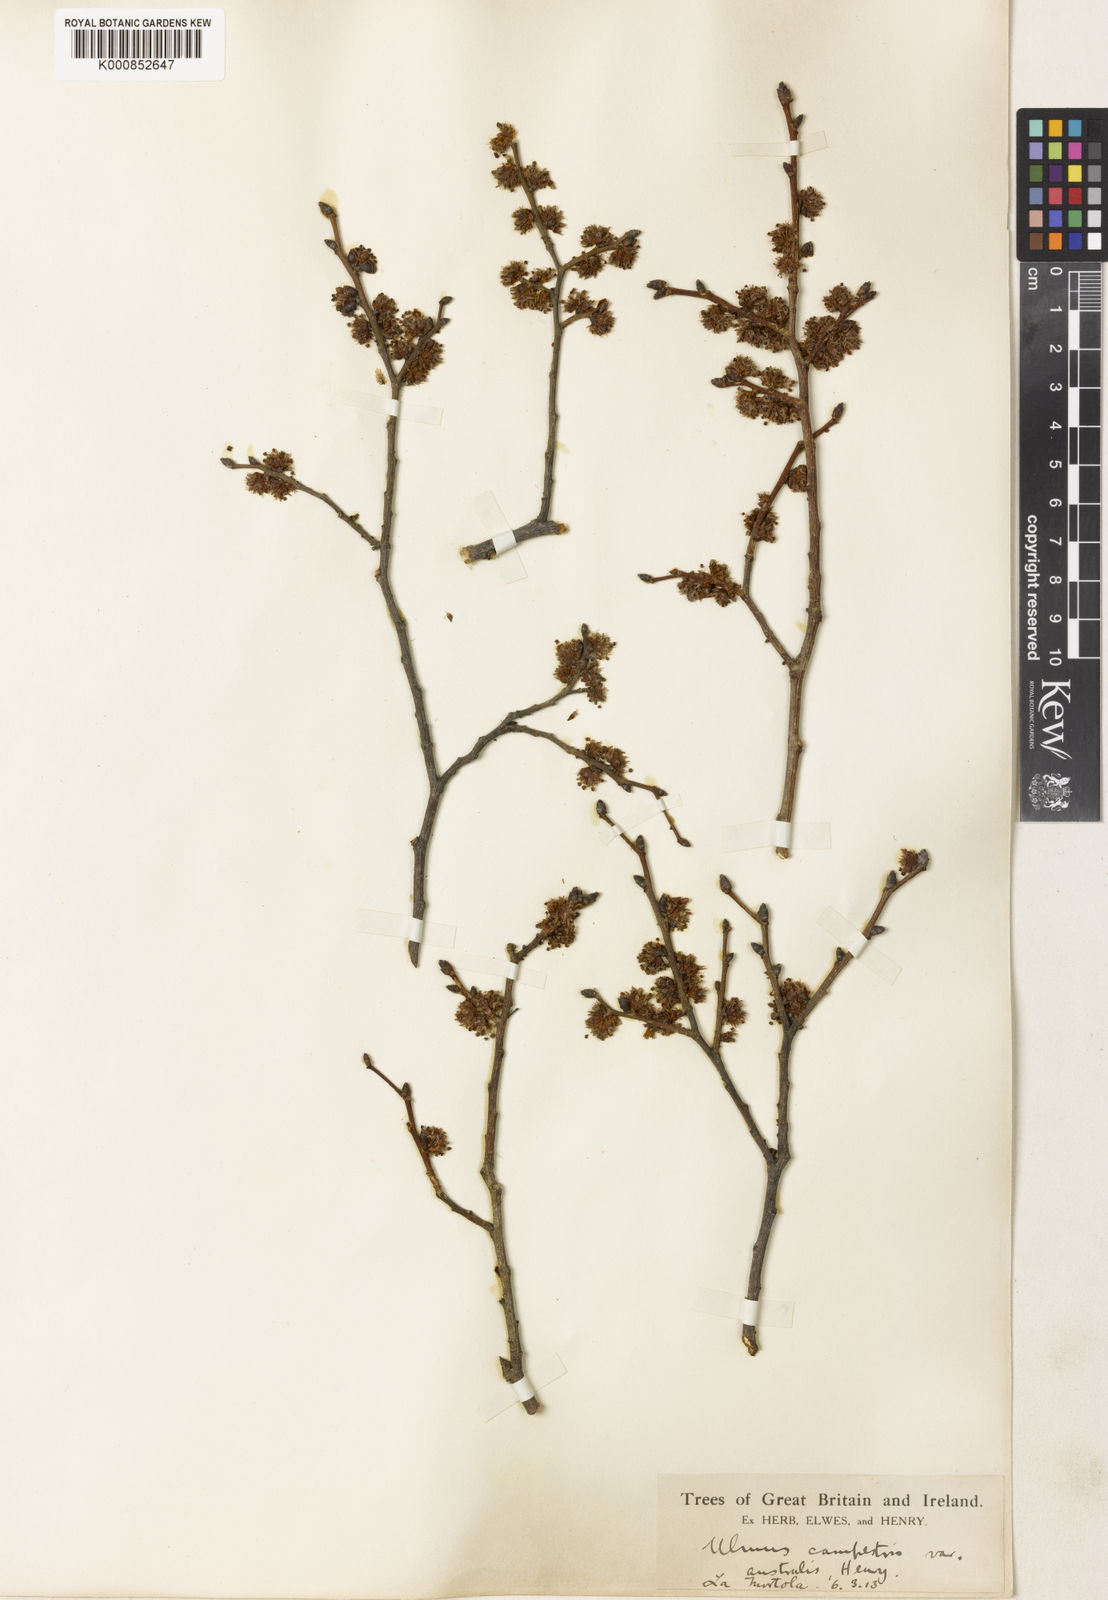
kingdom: Plantae
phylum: Tracheophyta
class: Magnoliopsida
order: Rosales
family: Ulmaceae
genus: Ulmus
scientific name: Ulmus minor
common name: Small-leaved elm
